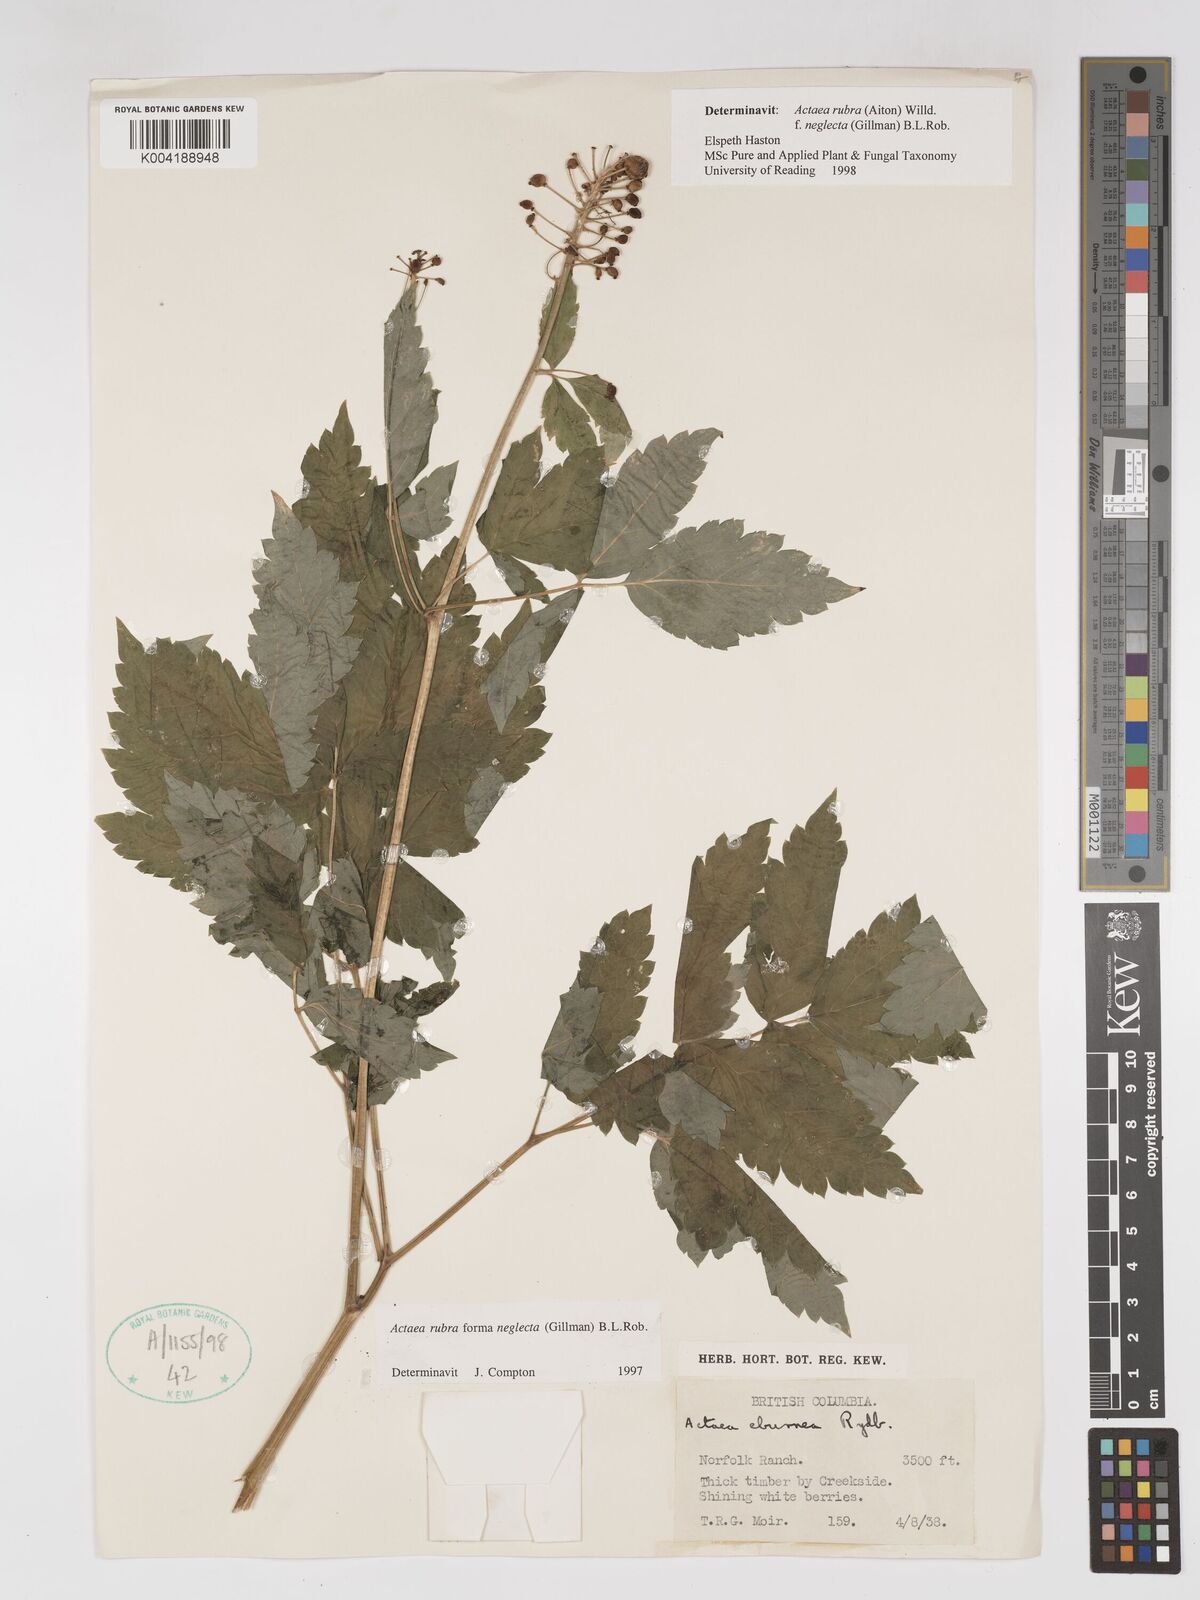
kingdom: Plantae
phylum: Tracheophyta
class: Magnoliopsida
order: Ranunculales
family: Ranunculaceae
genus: Actaea
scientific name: Actaea rubra
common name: Red baneberry
